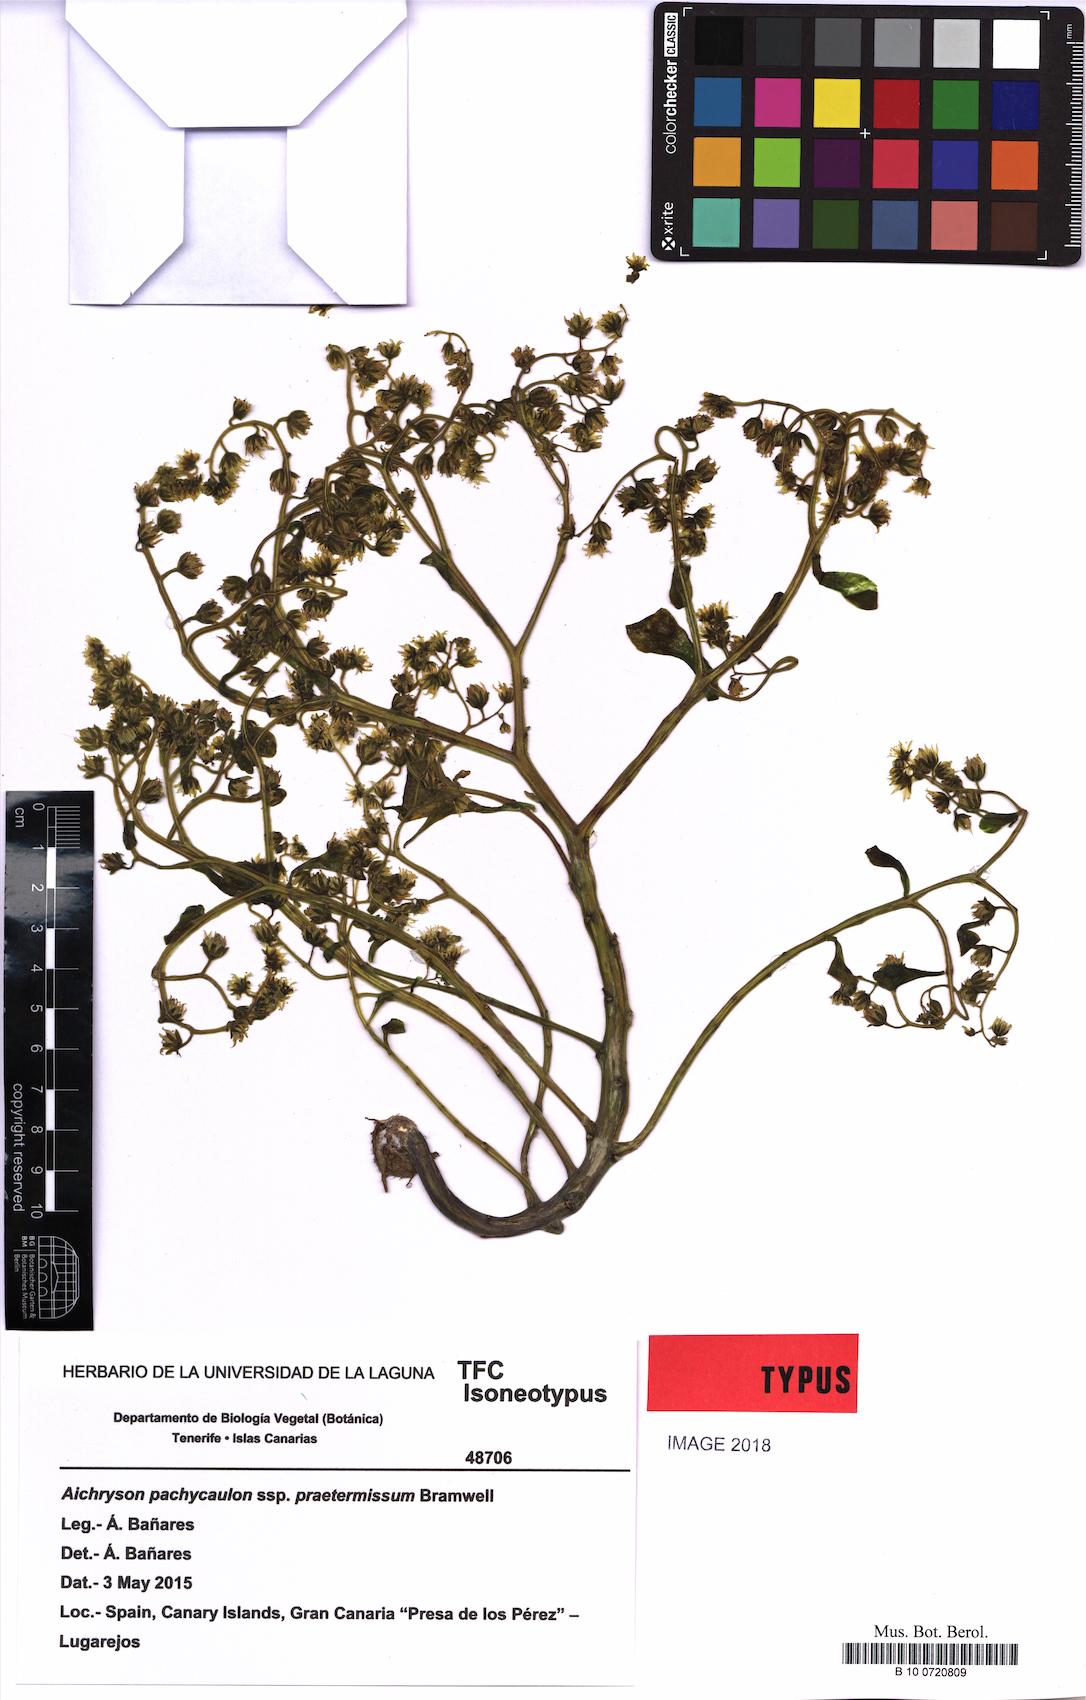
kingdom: Plantae
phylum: Tracheophyta
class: Magnoliopsida
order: Saxifragales
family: Crassulaceae
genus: Aichryson
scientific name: Aichryson pachycaulon
